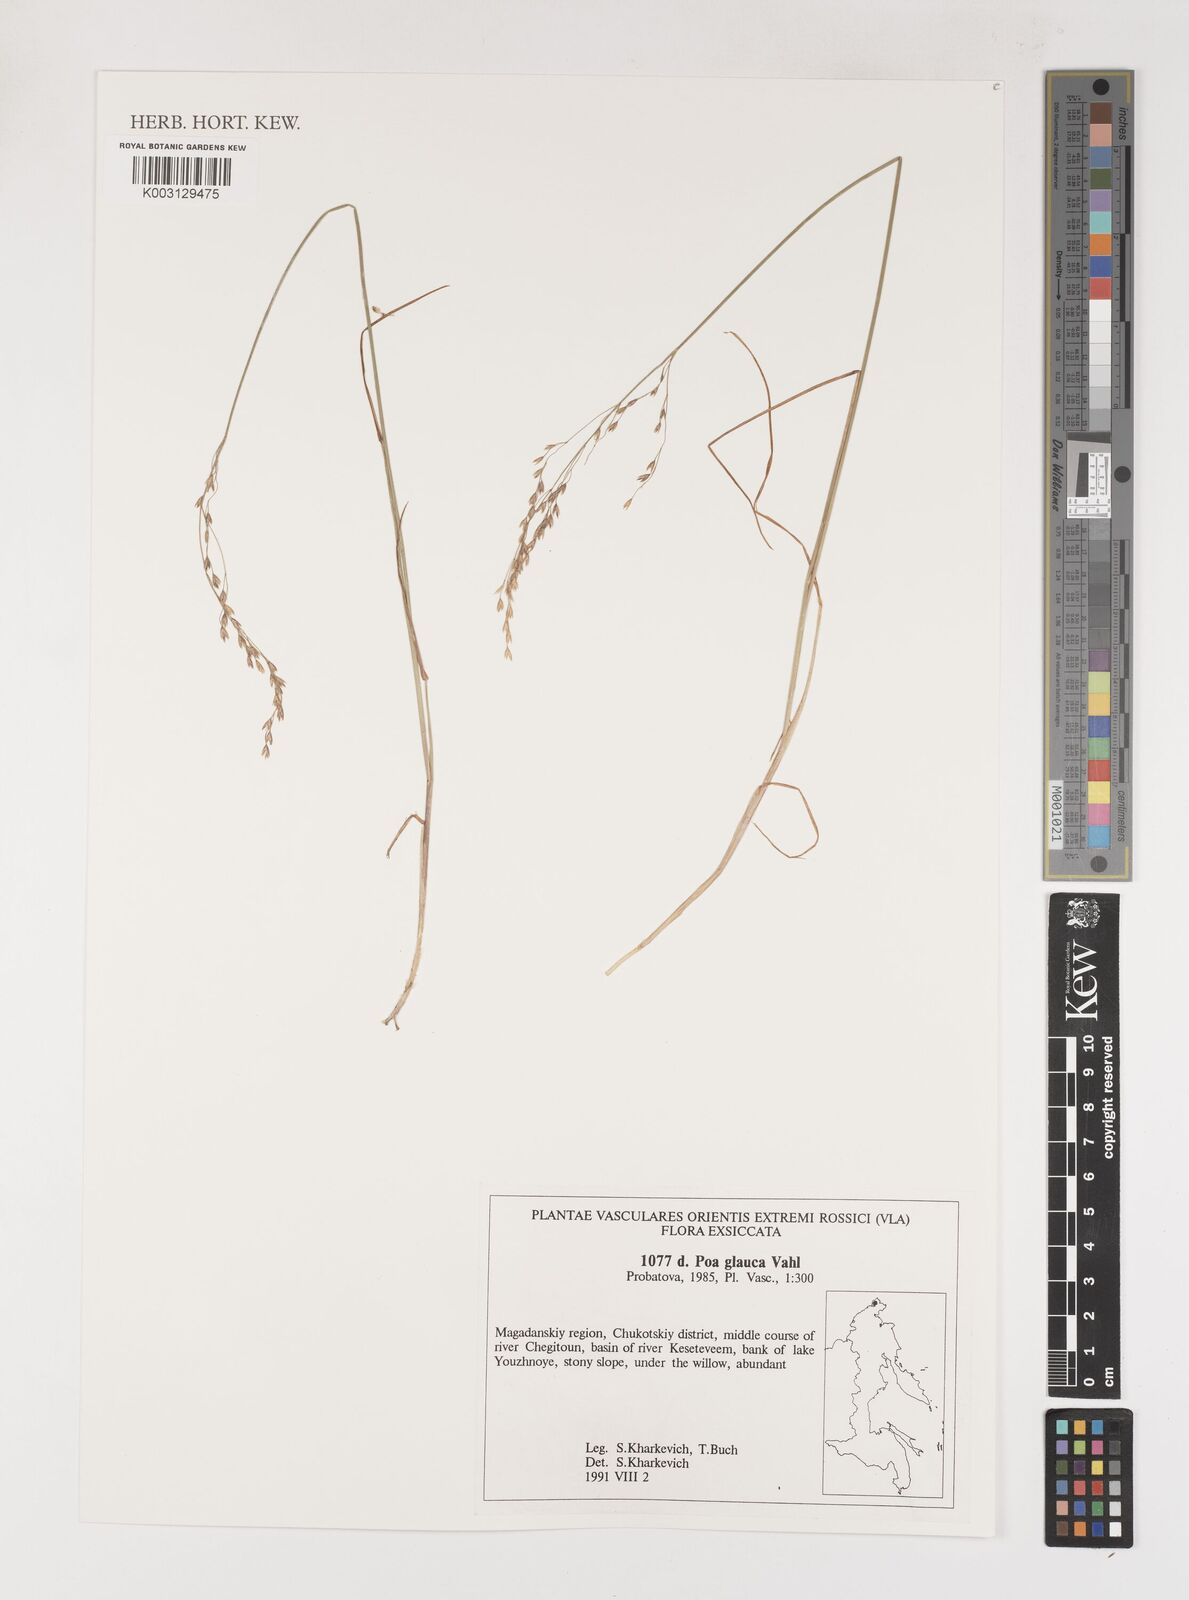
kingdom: Plantae
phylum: Tracheophyta
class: Liliopsida
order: Poales
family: Poaceae
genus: Poa
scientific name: Poa glauca
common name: Glaucous bluegrass
